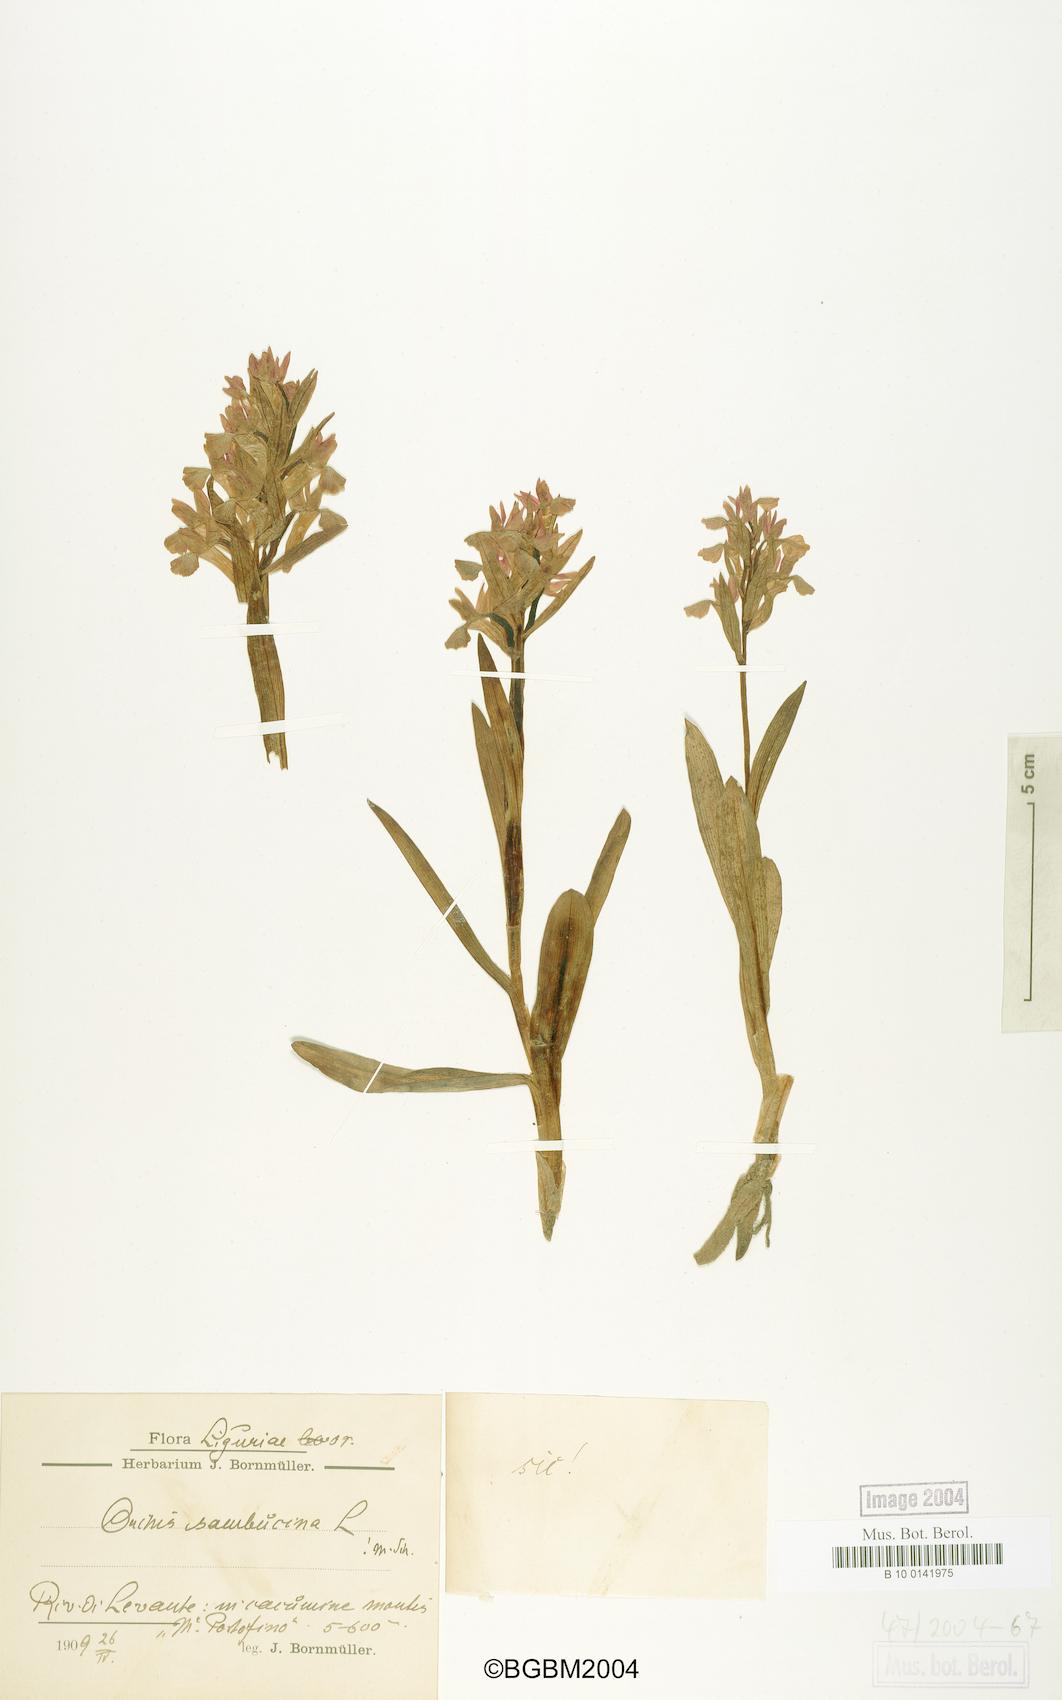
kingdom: Plantae
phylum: Tracheophyta
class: Liliopsida
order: Asparagales
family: Orchidaceae
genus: Dactylorhiza
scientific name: Dactylorhiza sambucina
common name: Elder-flowered orchid
